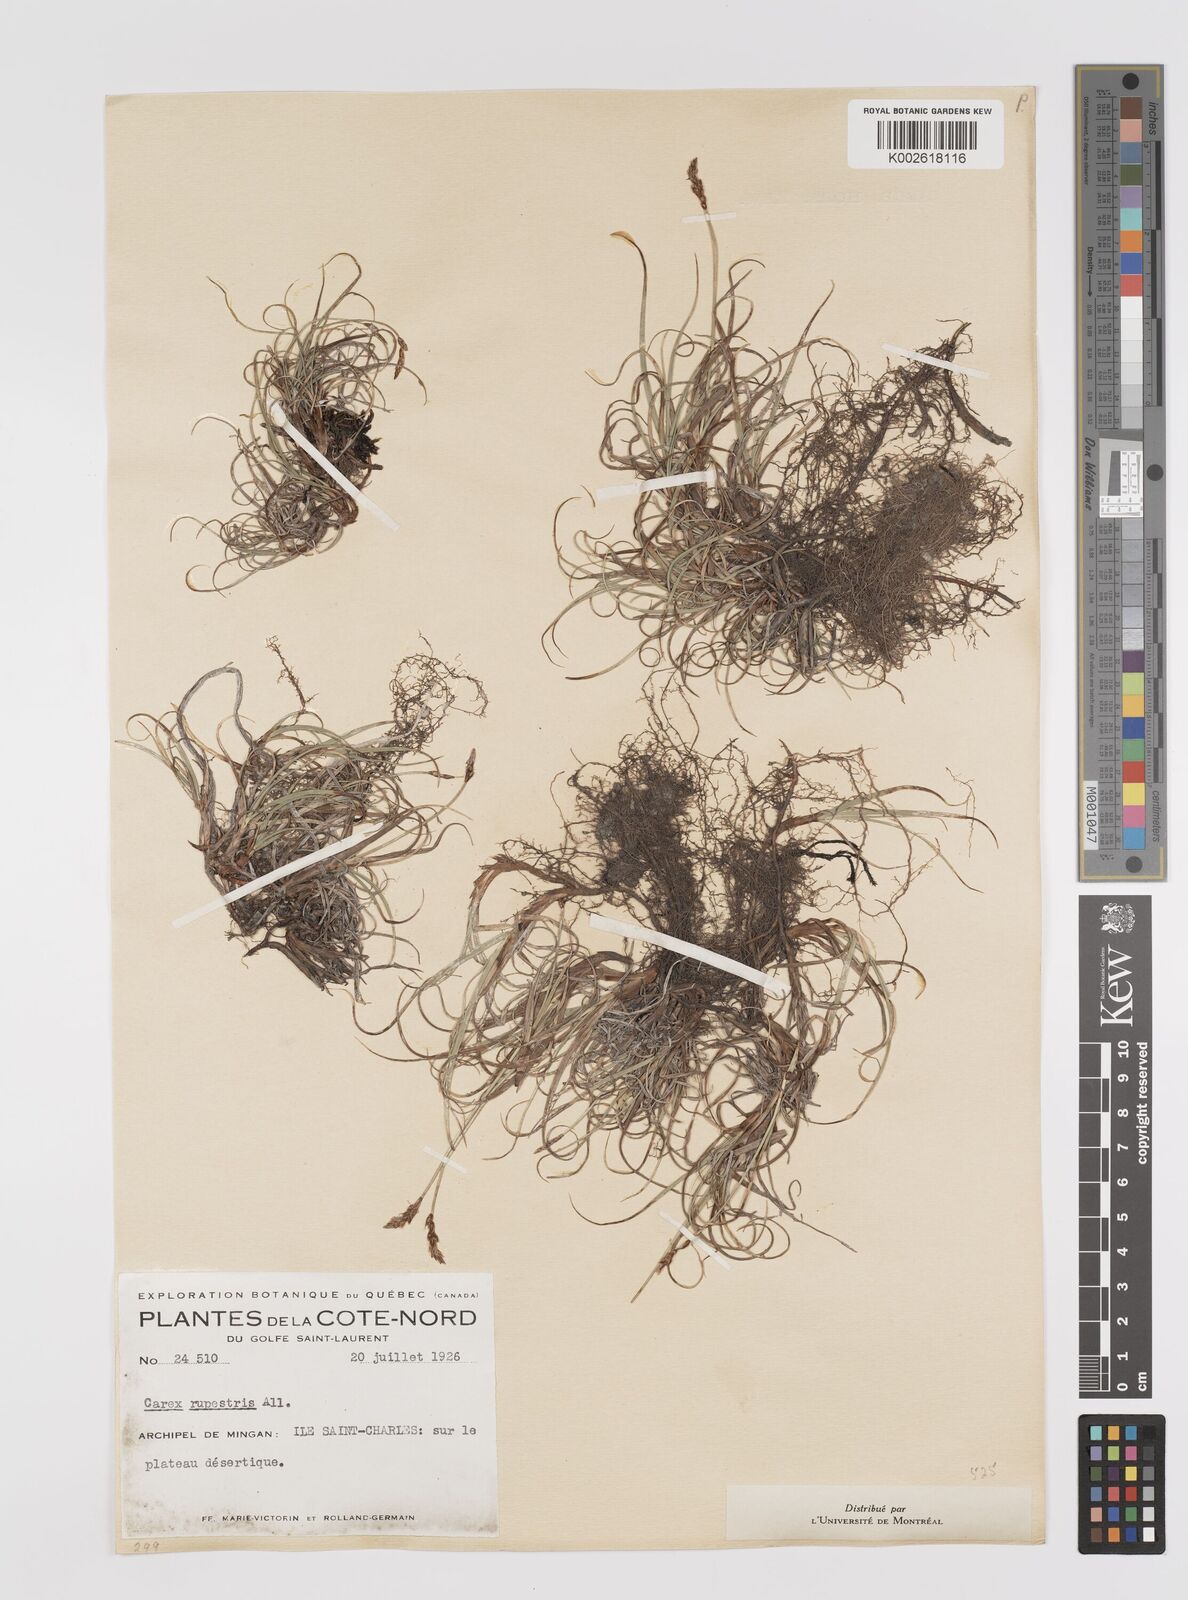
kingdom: Plantae
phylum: Tracheophyta
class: Liliopsida
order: Poales
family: Cyperaceae
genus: Carex
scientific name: Carex rupestris
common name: Rock sedge
